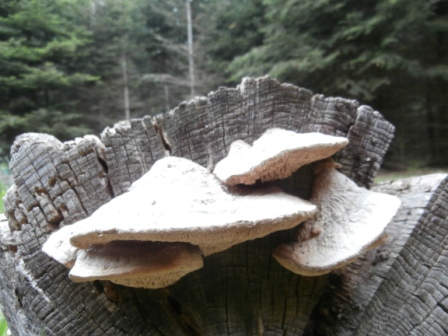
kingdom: Fungi
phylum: Basidiomycota
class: Agaricomycetes
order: Polyporales
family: Fomitopsidaceae
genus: Daedalea
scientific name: Daedalea quercina
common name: ege-labyrintsvamp
